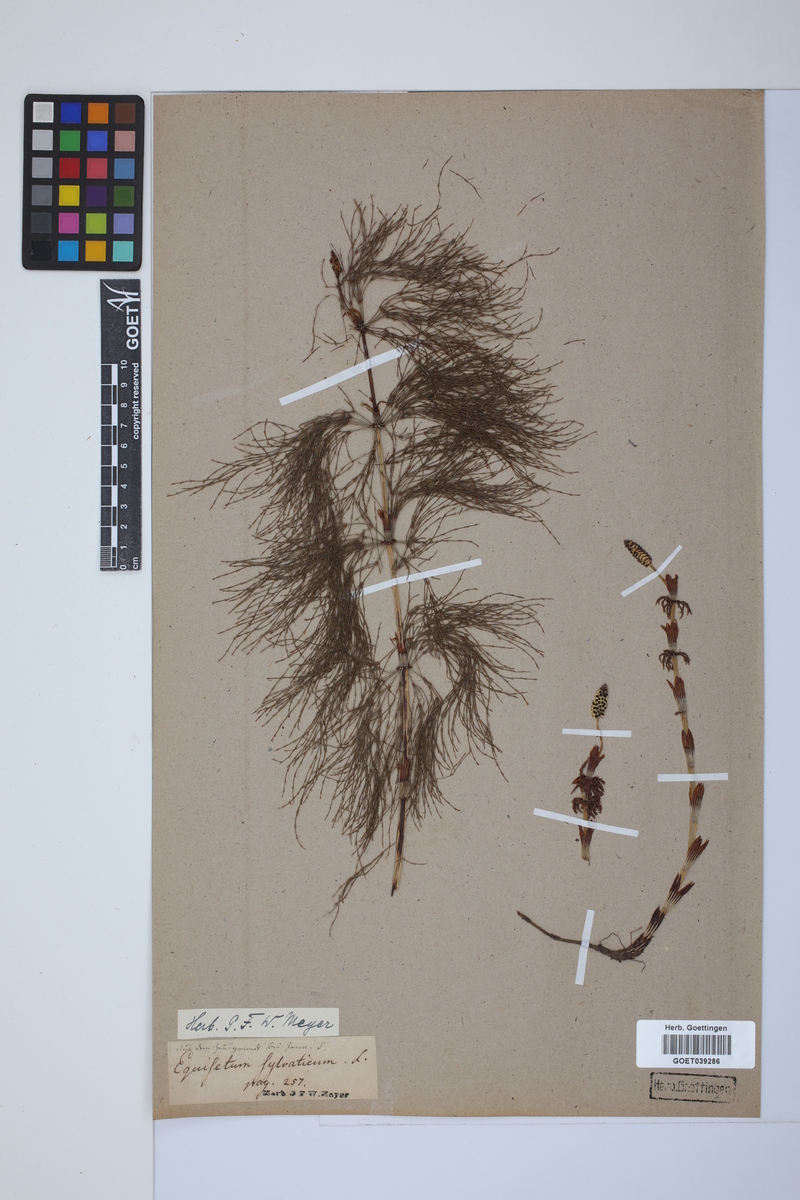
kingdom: Plantae
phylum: Tracheophyta
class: Polypodiopsida
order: Equisetales
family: Equisetaceae
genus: Equisetum
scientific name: Equisetum sylvaticum
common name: Wood horsetail
